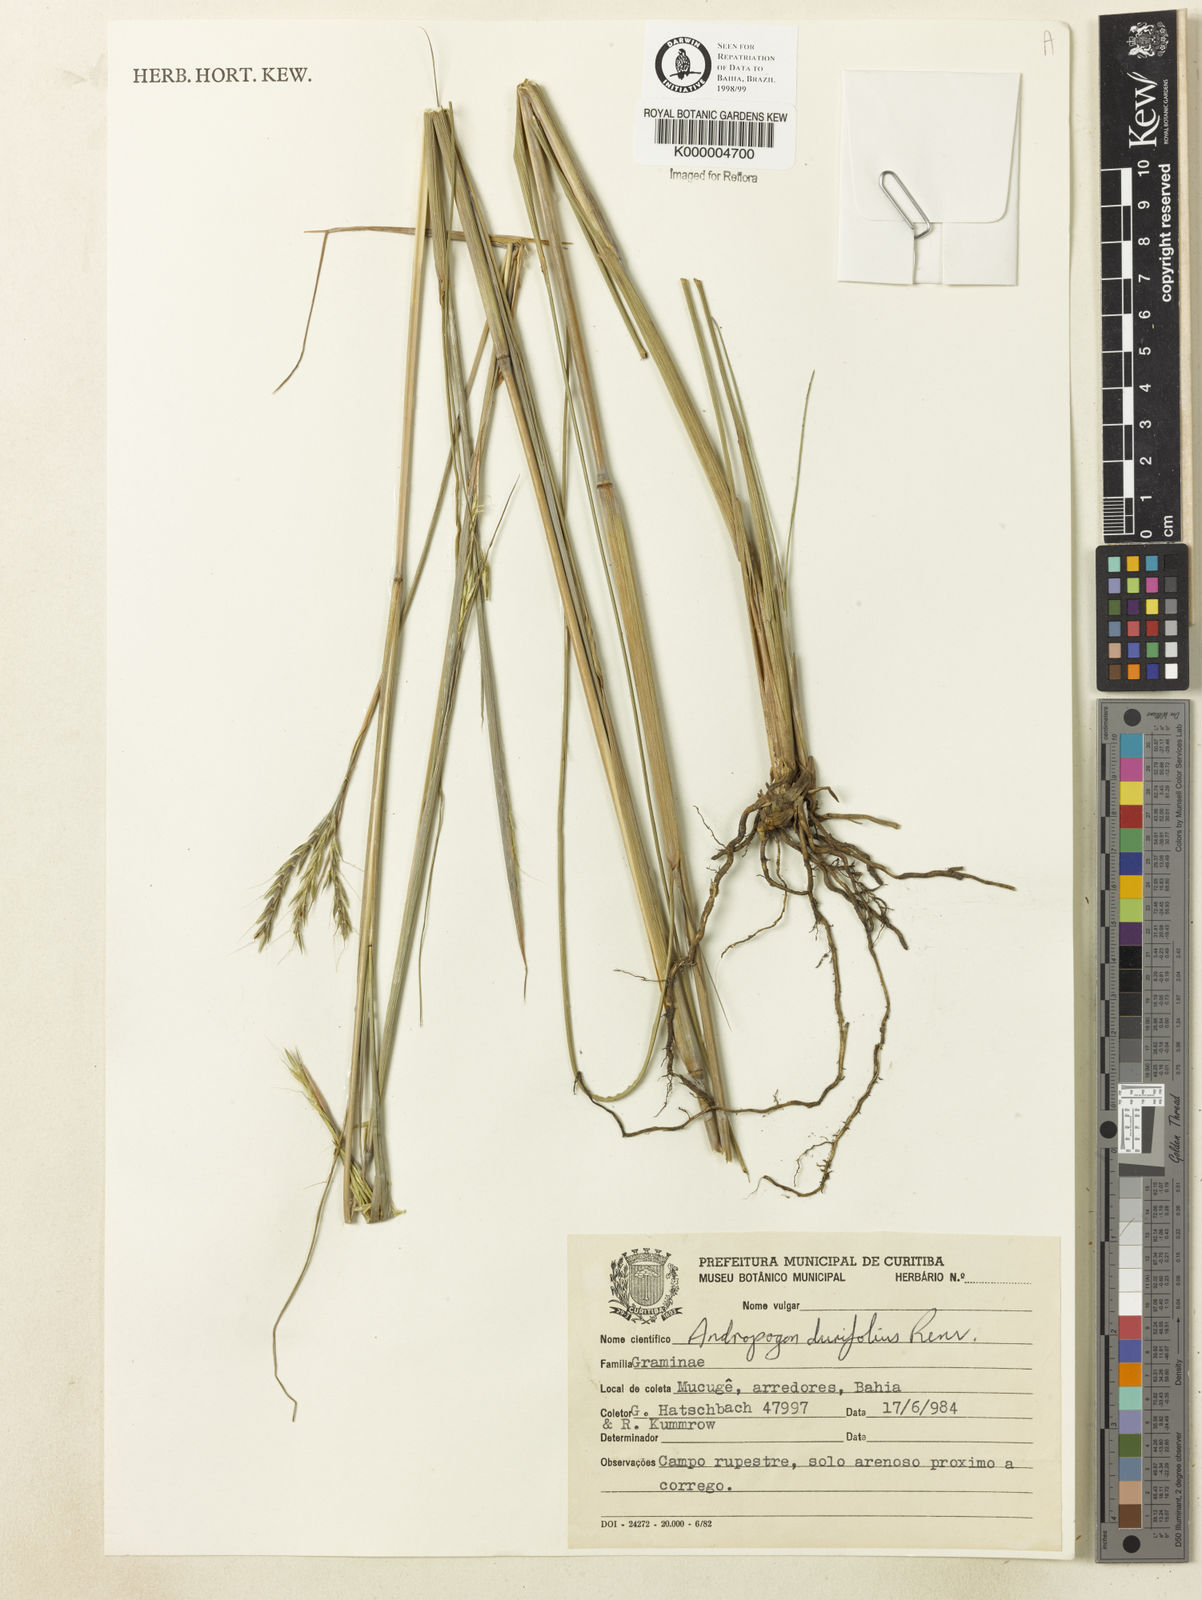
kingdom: Plantae
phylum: Tracheophyta
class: Liliopsida
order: Poales
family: Poaceae
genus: Andropogon
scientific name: Andropogon durifolius
